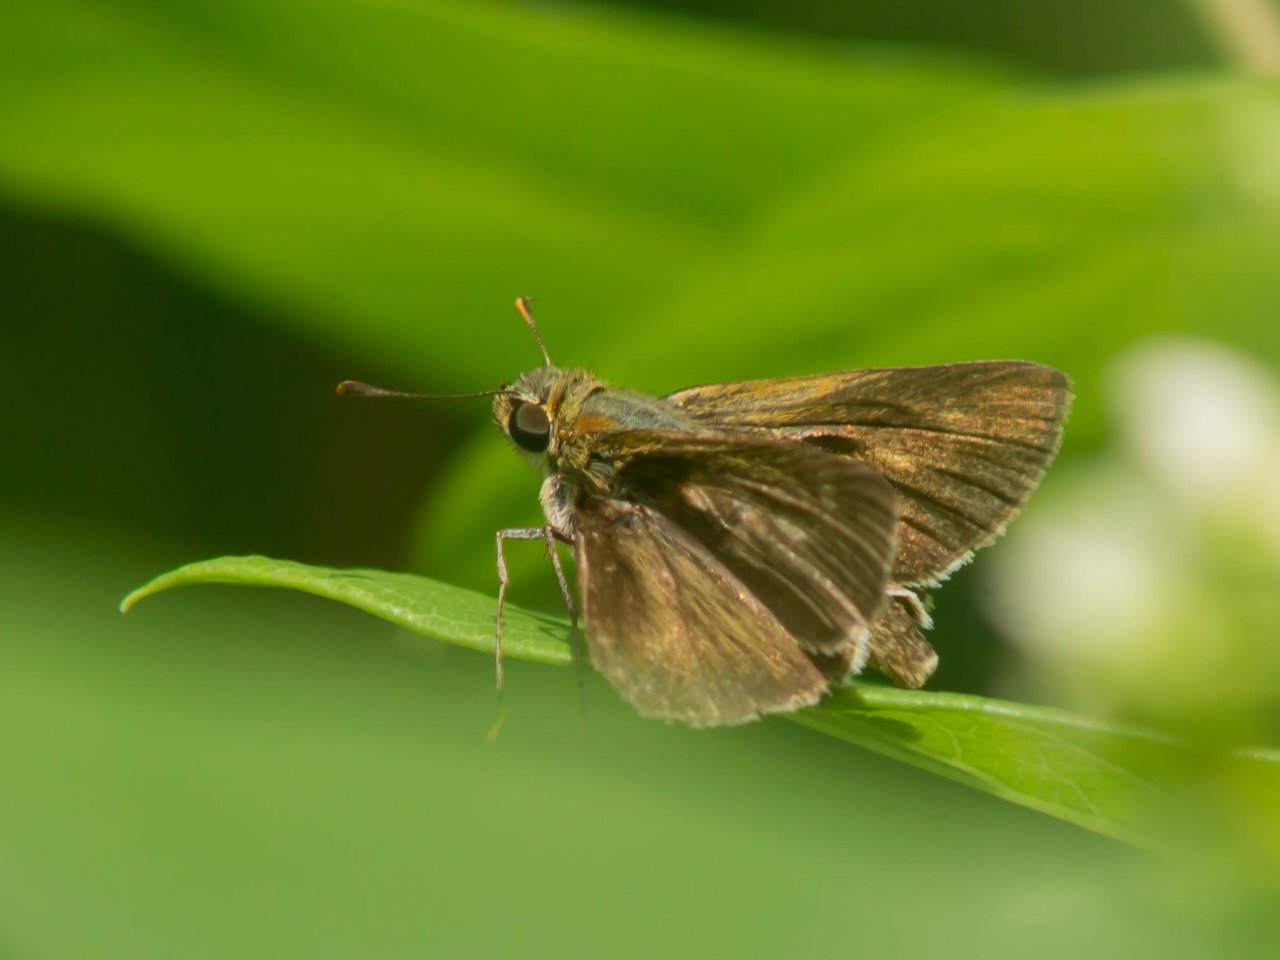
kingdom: Animalia
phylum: Arthropoda
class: Insecta
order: Lepidoptera
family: Hesperiidae
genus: Polites
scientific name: Polites egeremet
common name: Northern Broken-Dash
